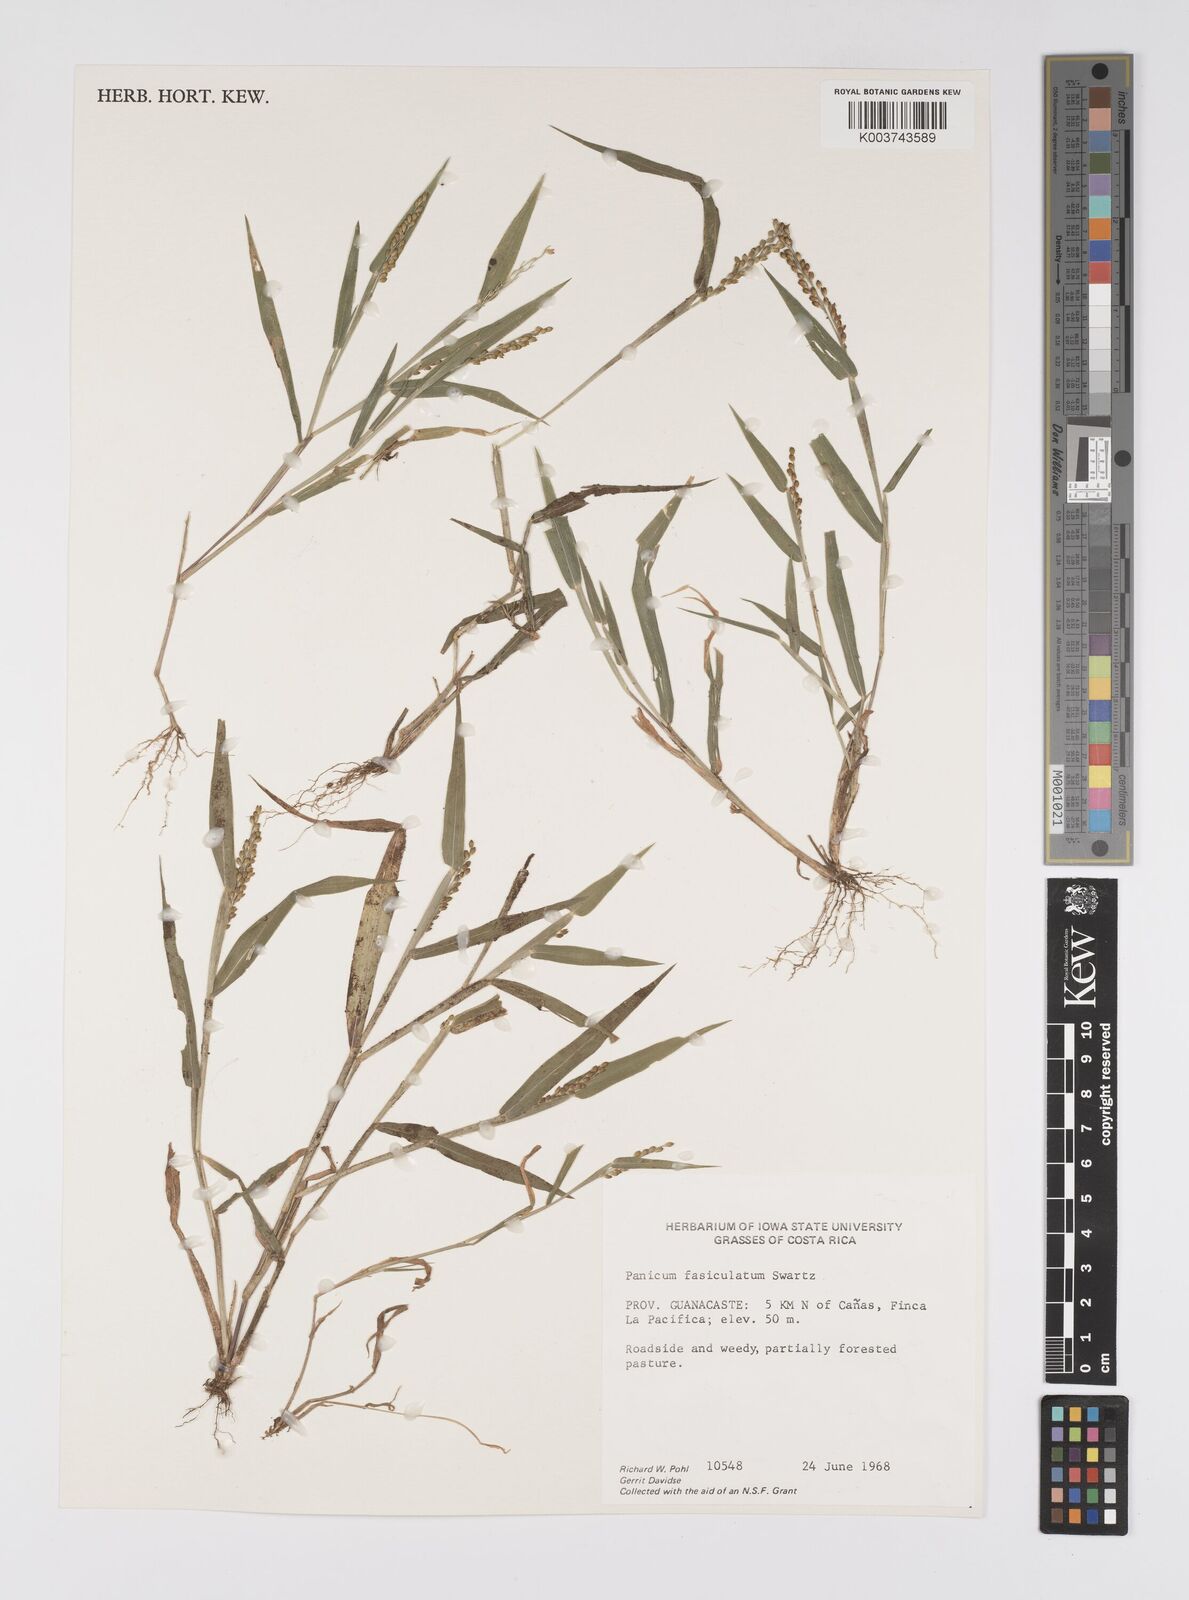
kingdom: Plantae
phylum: Tracheophyta
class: Liliopsida
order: Poales
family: Poaceae
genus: Urochloa
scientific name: Urochloa fusca
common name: Browntop signal grass
